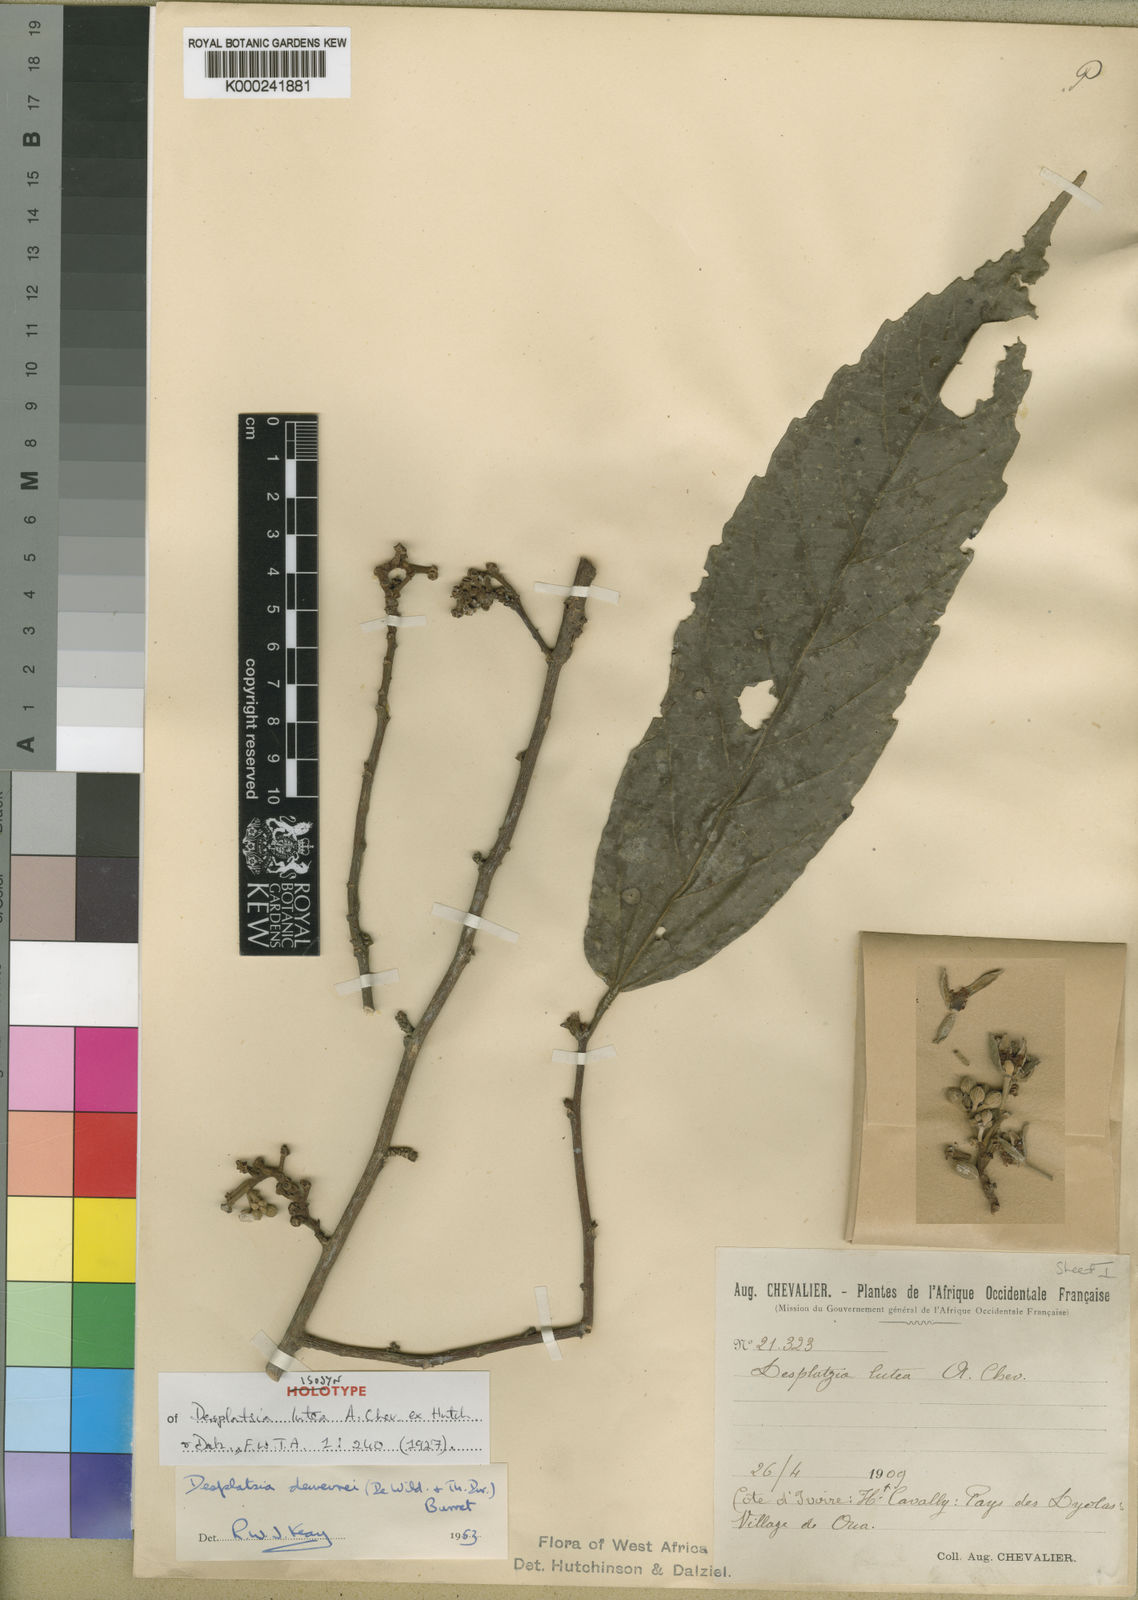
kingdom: Plantae
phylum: Tracheophyta
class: Magnoliopsida
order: Malvales
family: Malvaceae
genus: Desplatsia
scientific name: Desplatsia dewevrei
